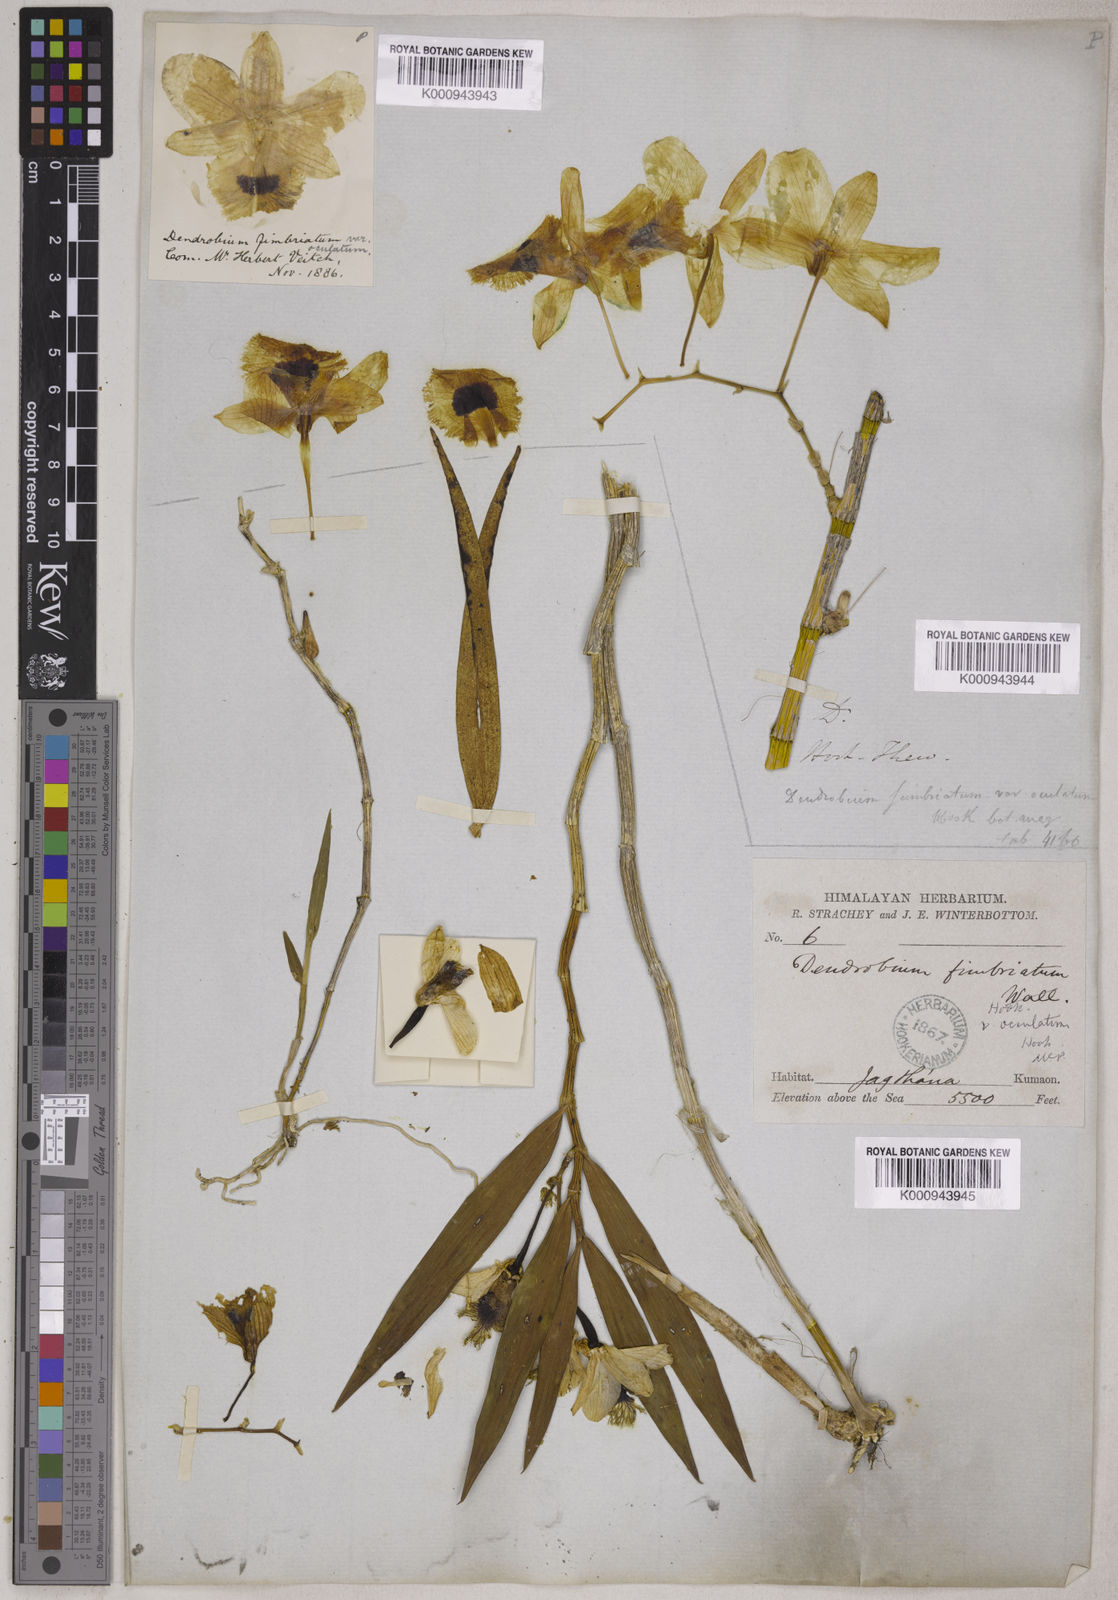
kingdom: Plantae
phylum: Tracheophyta
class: Liliopsida
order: Asparagales
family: Orchidaceae
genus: Dendrobium
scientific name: Dendrobium fimbriatum
